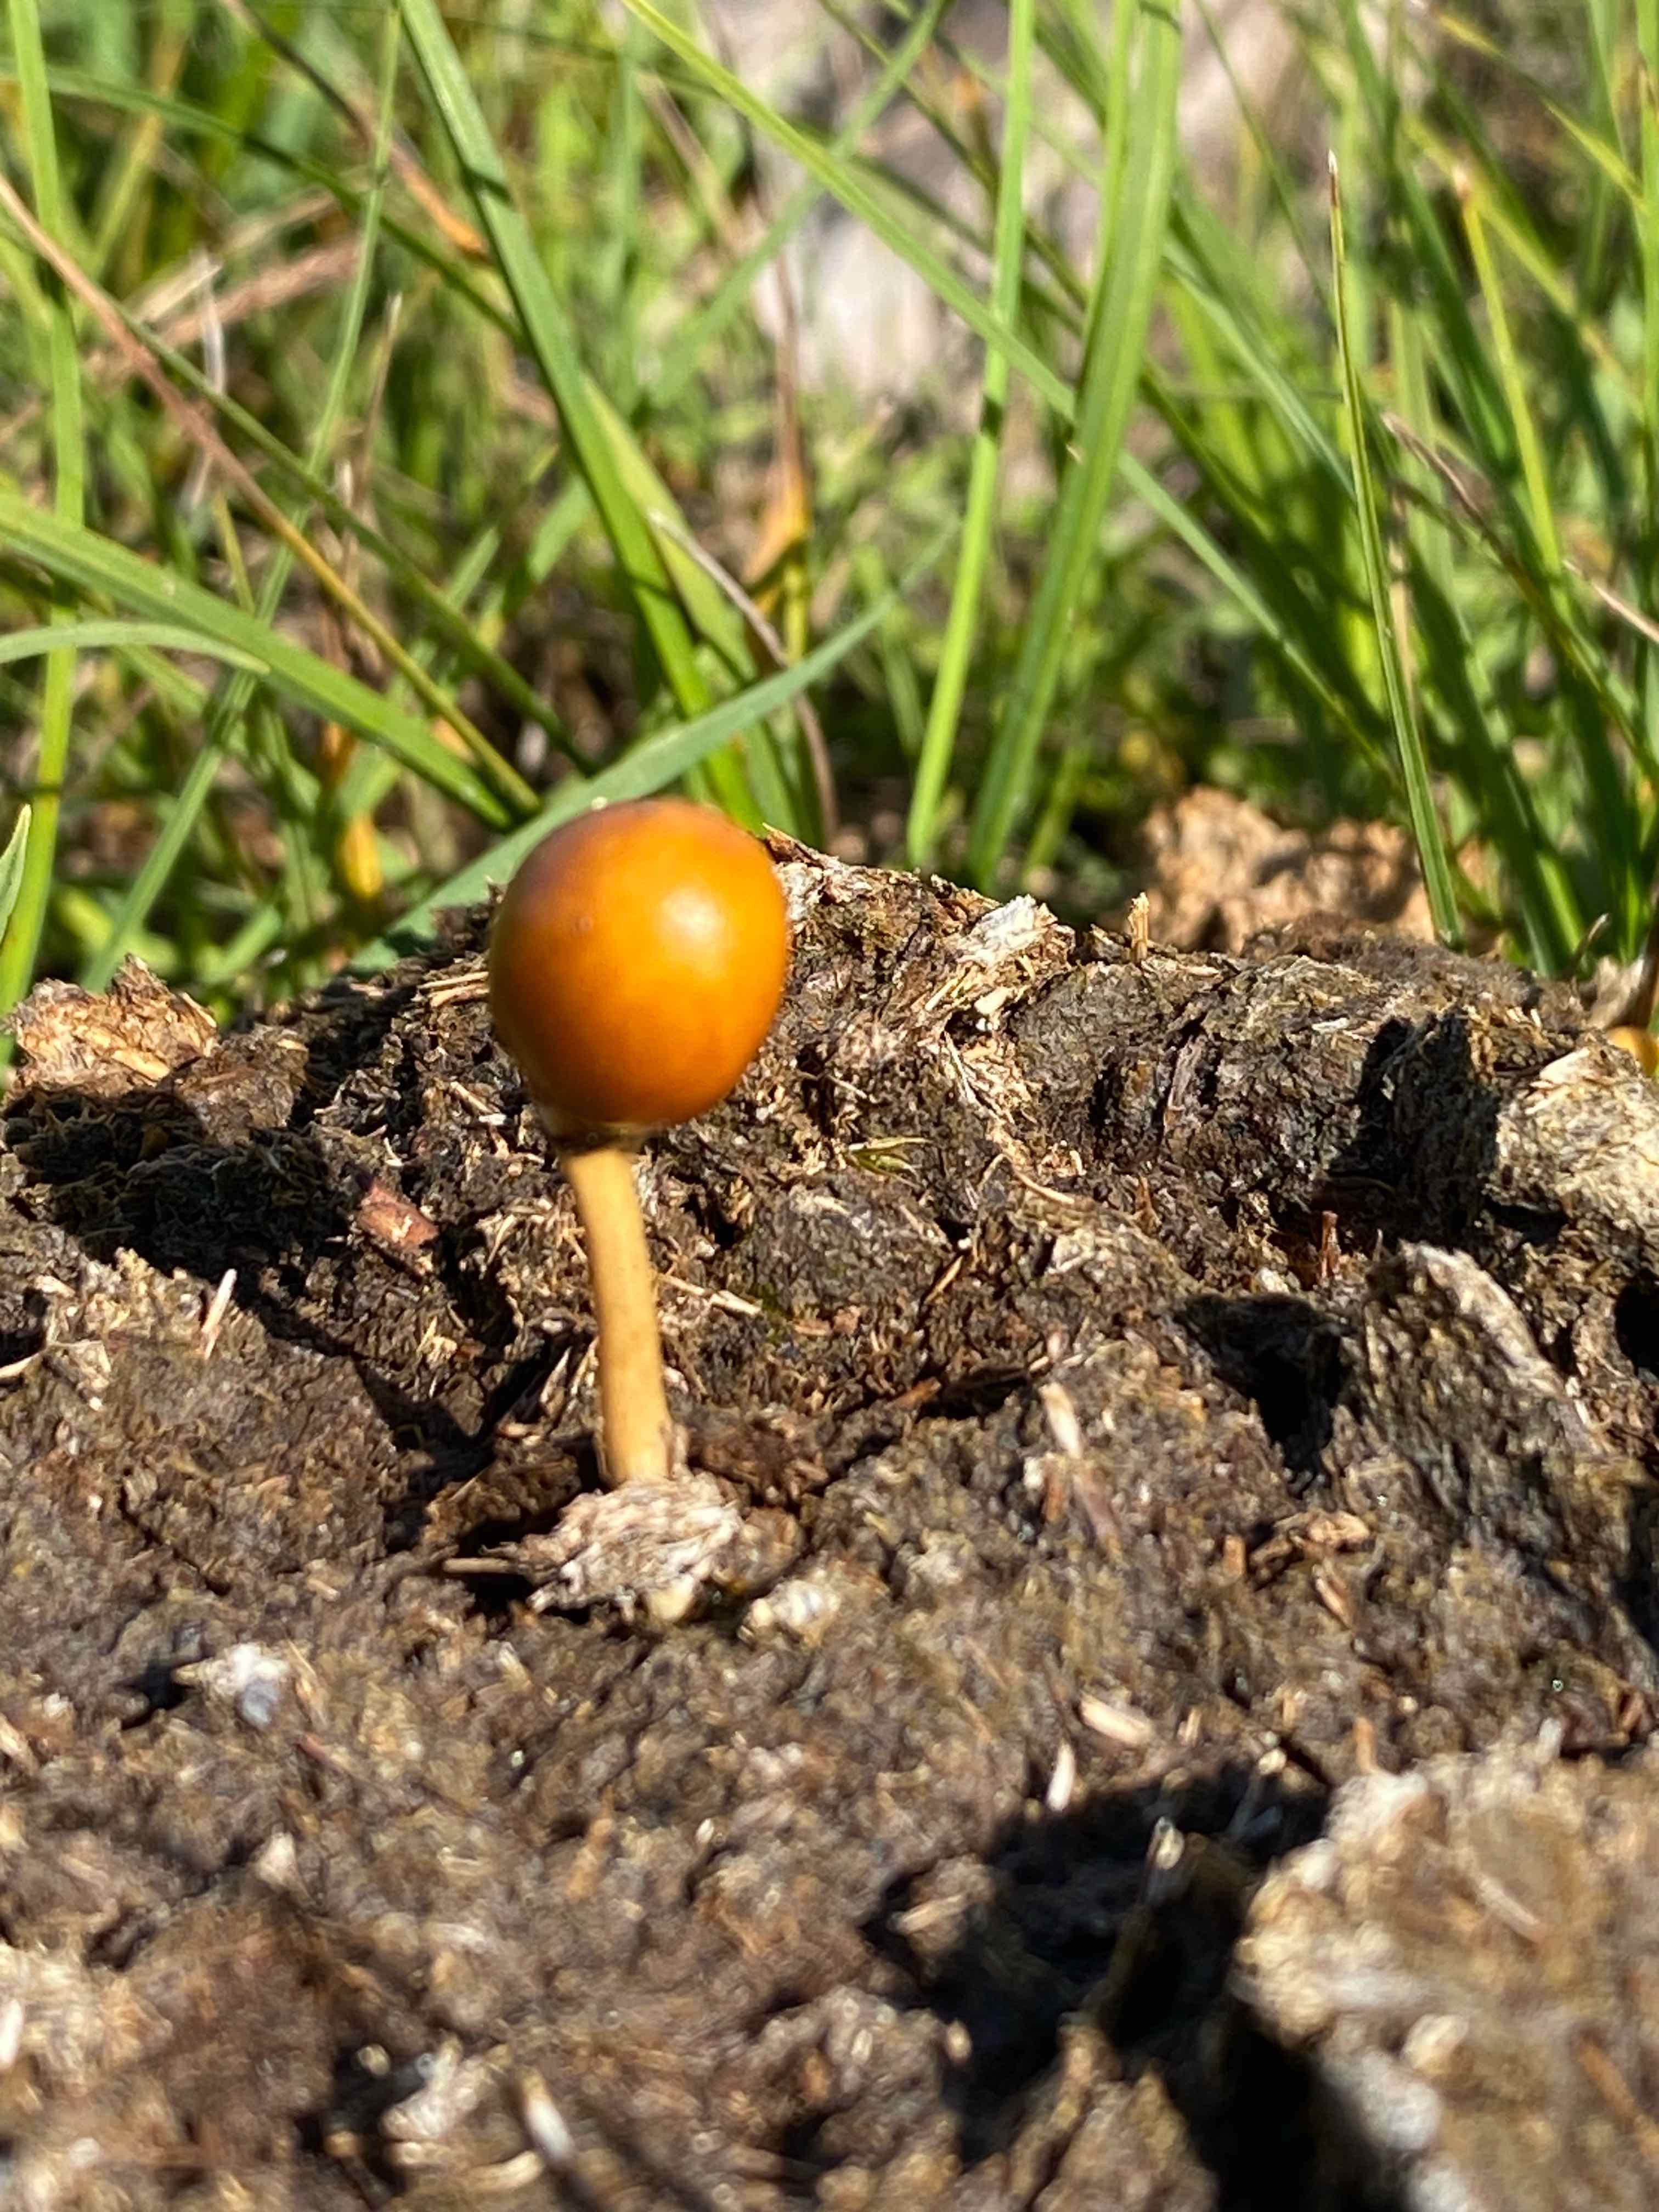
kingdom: Fungi
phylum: Basidiomycota
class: Agaricomycetes
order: Agaricales
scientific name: Agaricales
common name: champignonordenen
